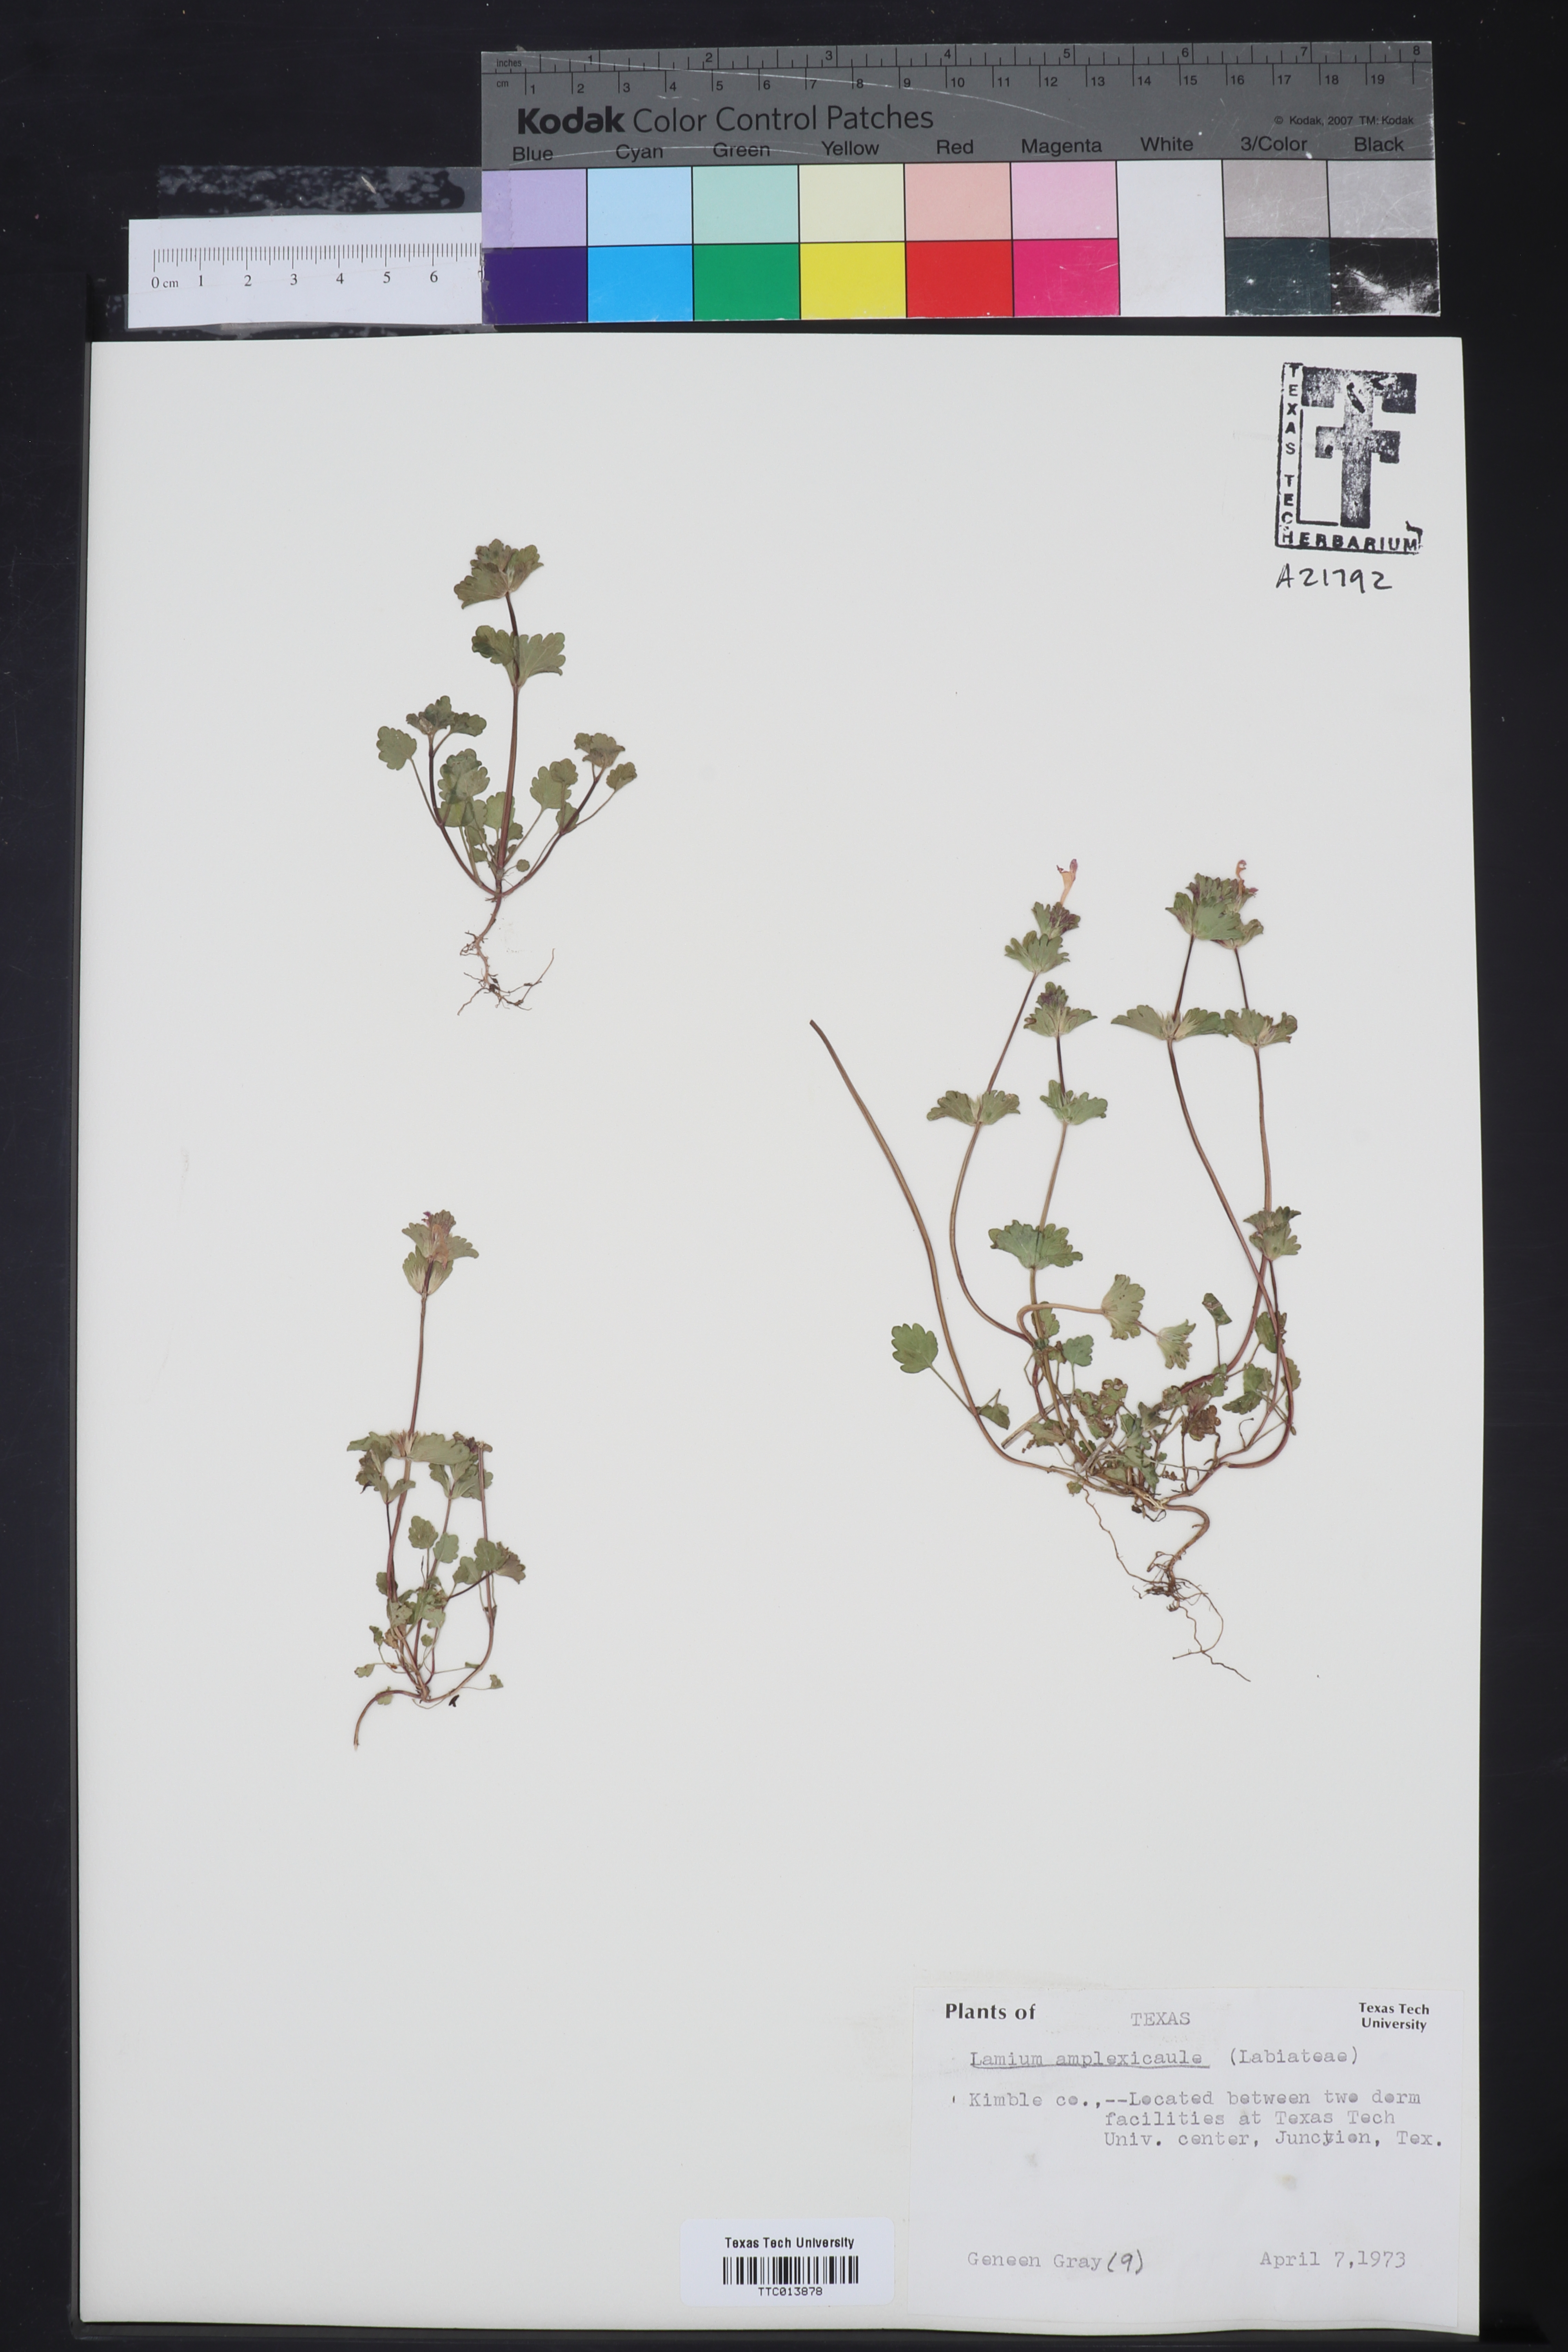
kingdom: Plantae
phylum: Tracheophyta
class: Magnoliopsida
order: Lamiales
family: Lamiaceae
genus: Lamium
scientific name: Lamium amplexicaule
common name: Henbit dead-nettle
